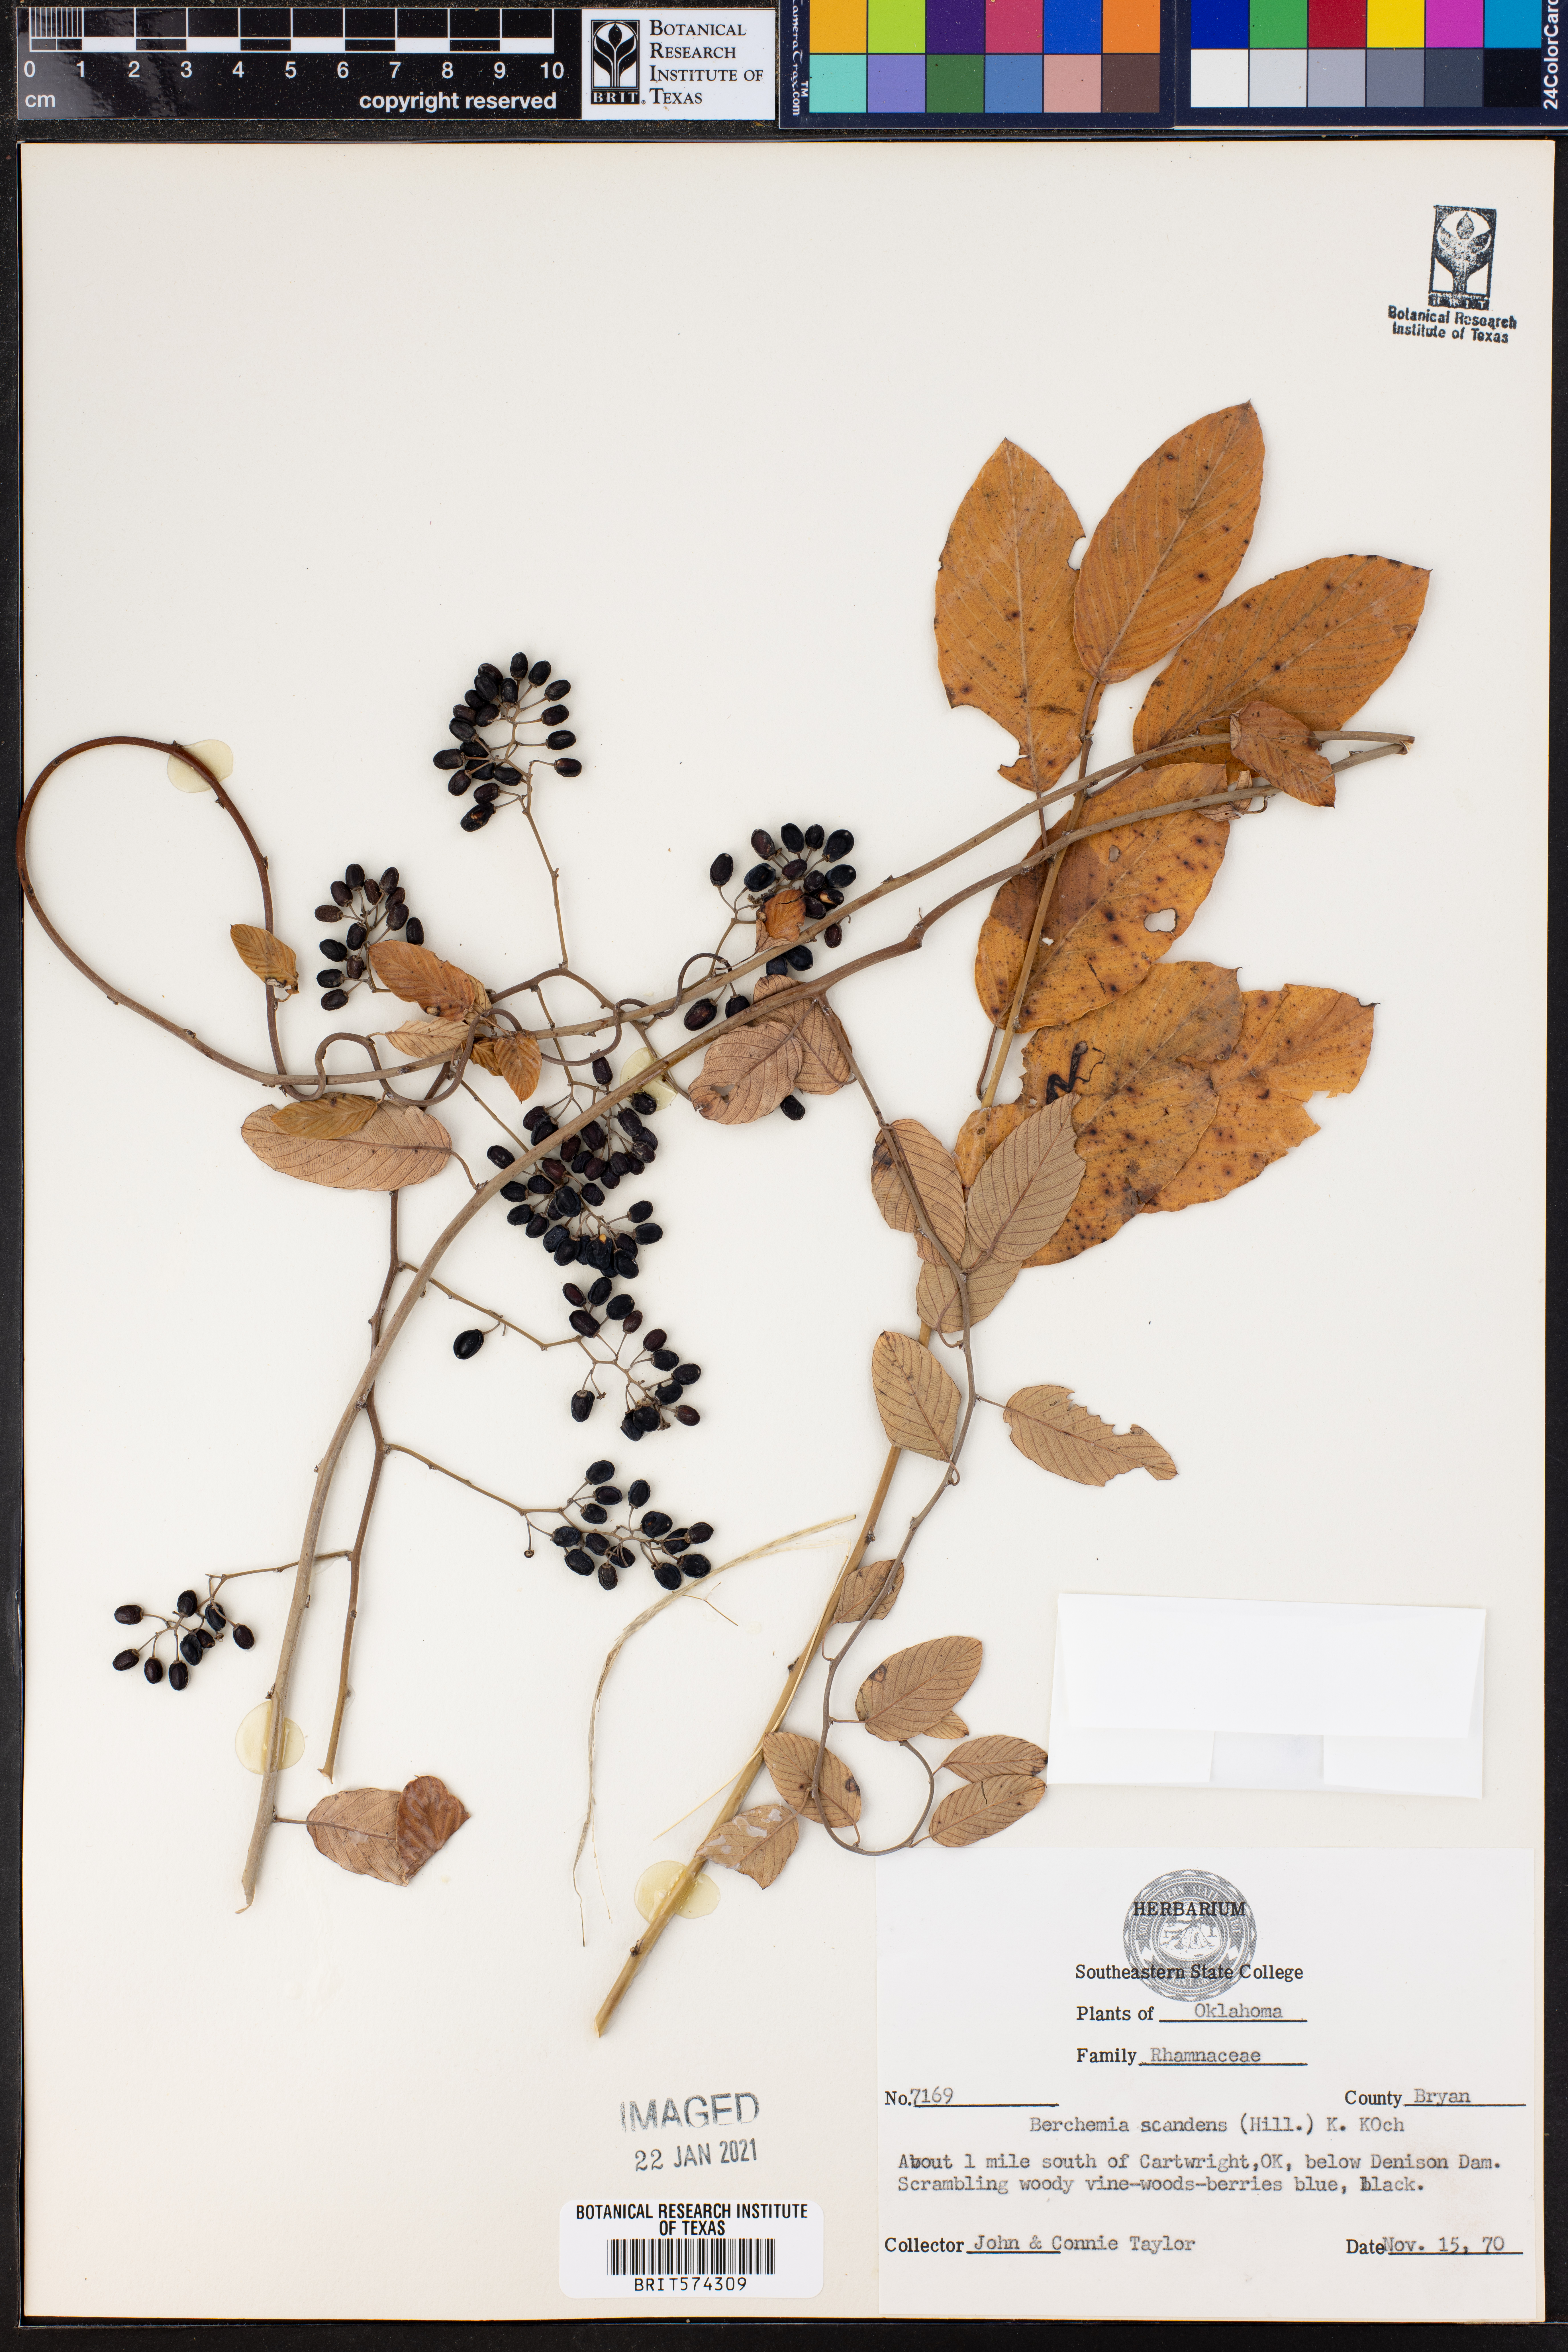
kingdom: Plantae
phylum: Tracheophyta
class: Magnoliopsida
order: Rosales
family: Rhamnaceae
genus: Berchemia
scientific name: Berchemia scandens
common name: Supplejack
